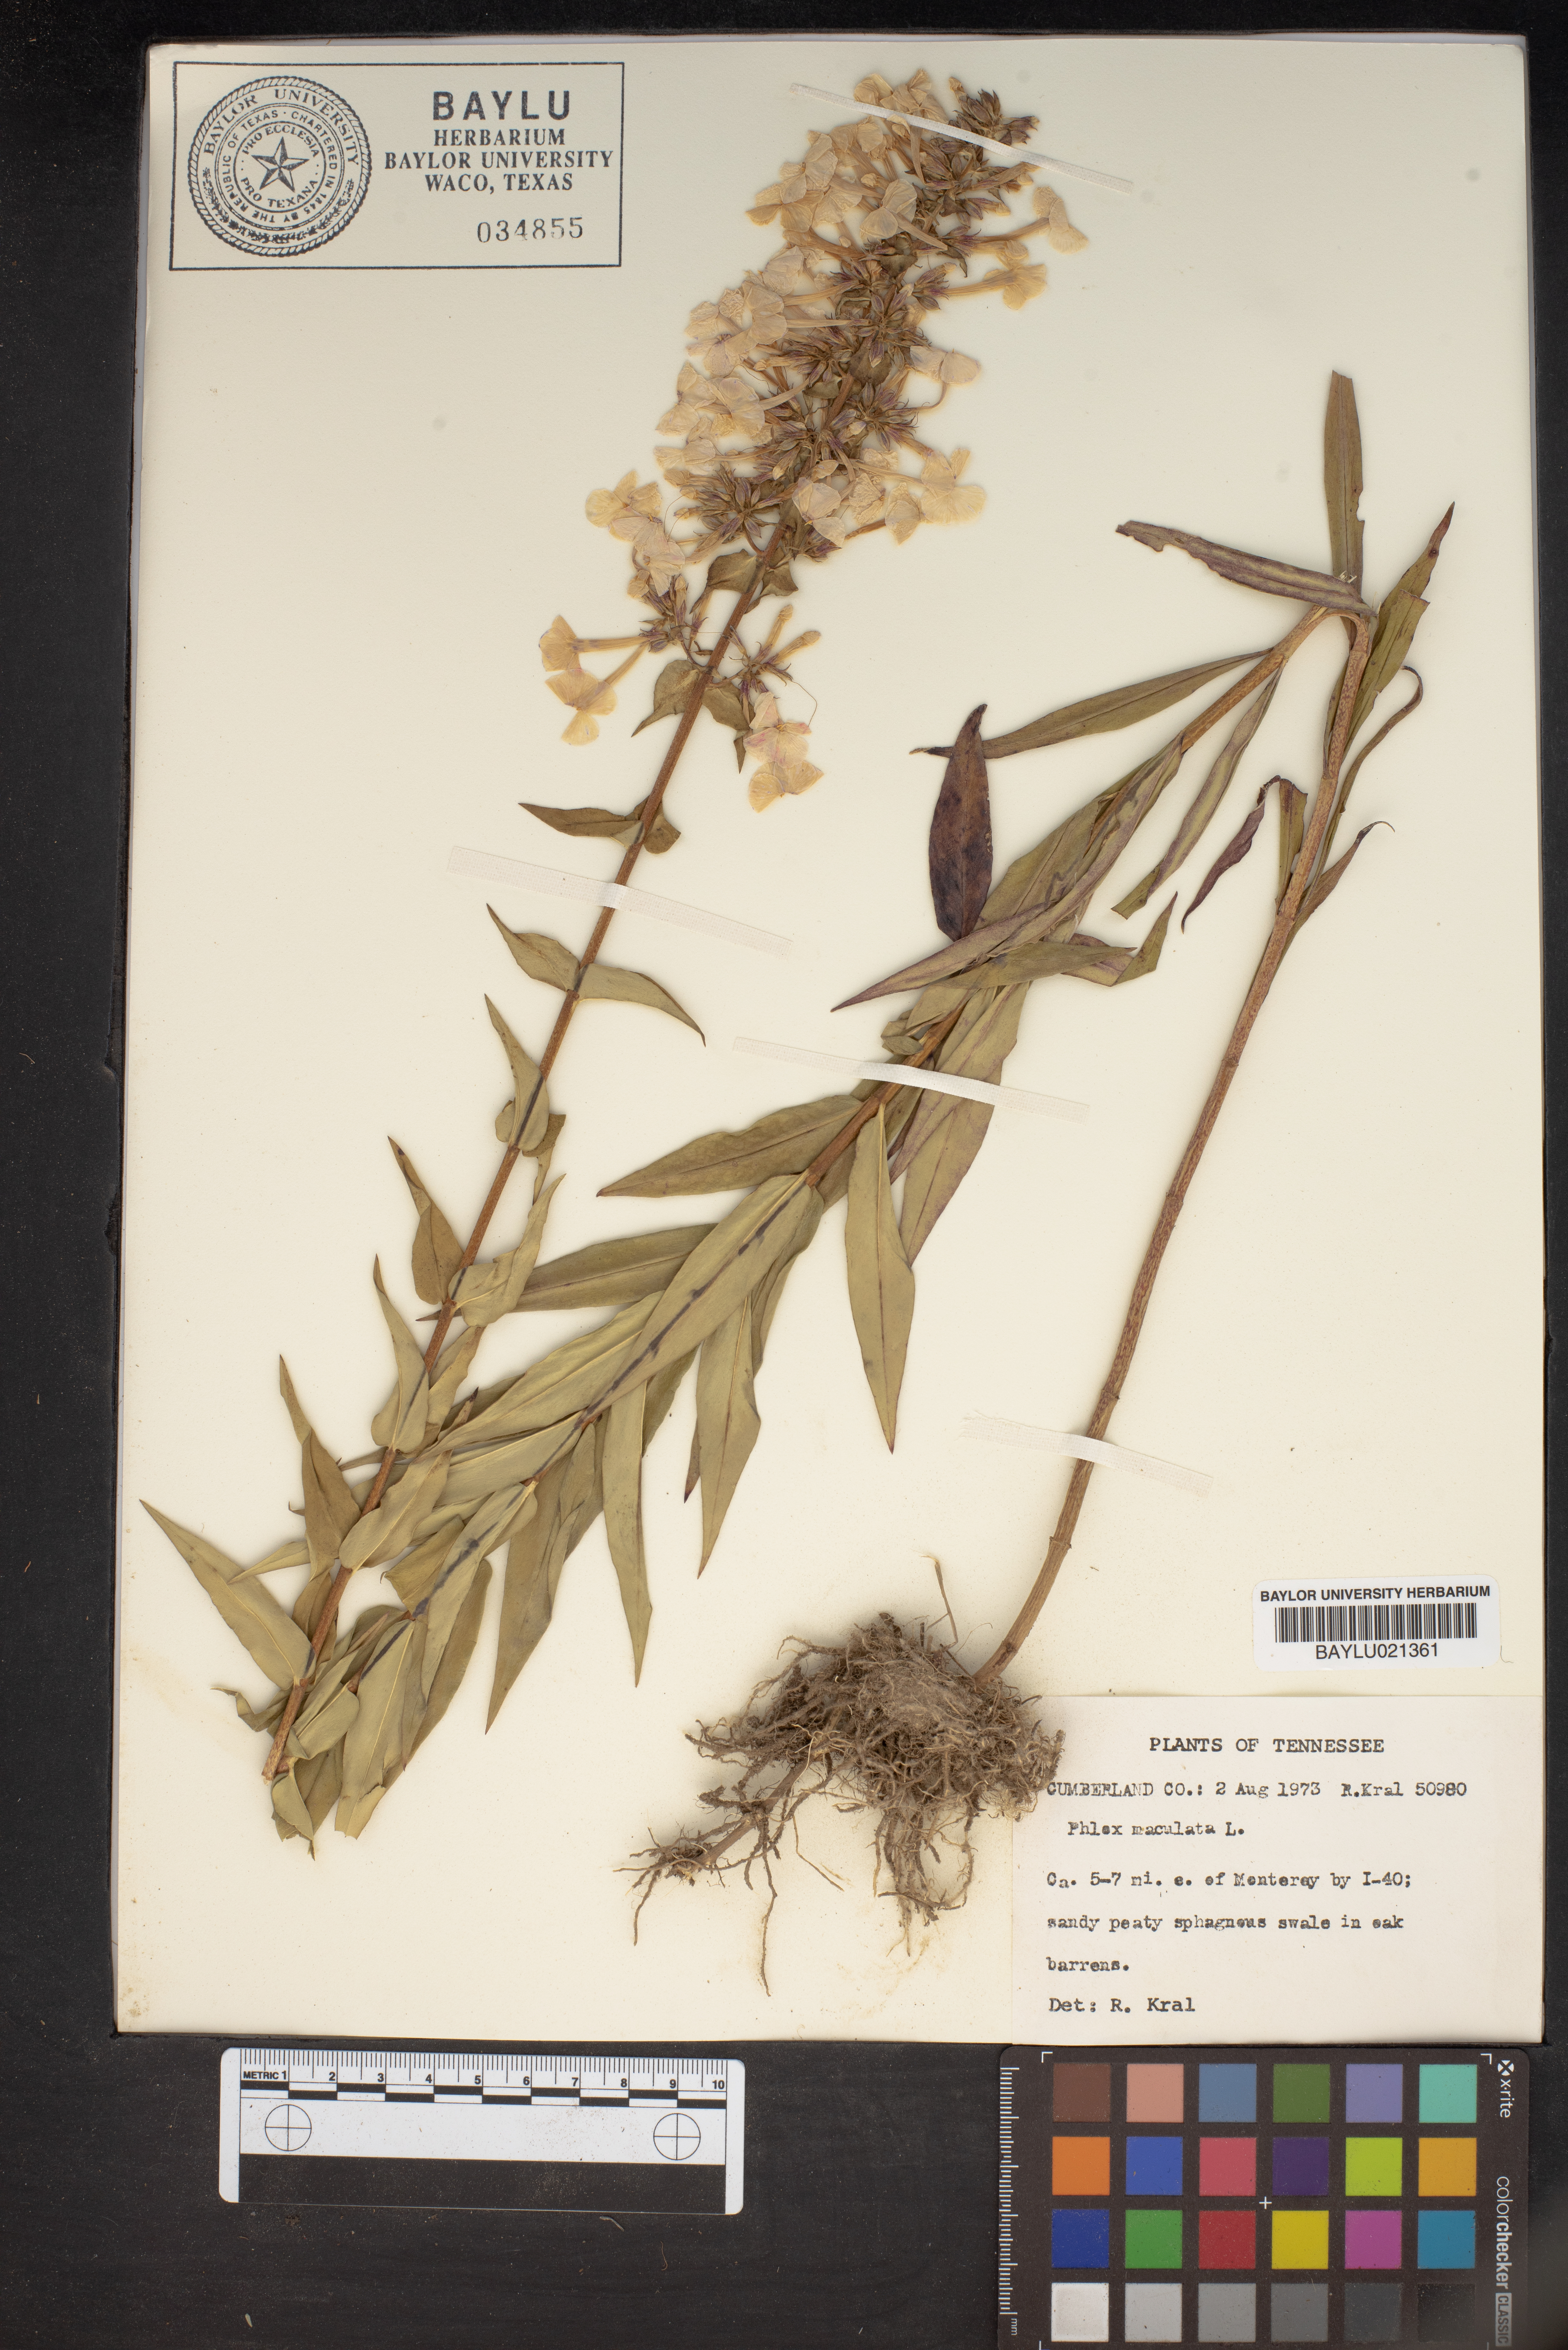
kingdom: Plantae
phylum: Tracheophyta
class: Magnoliopsida
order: Ericales
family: Polemoniaceae
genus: Phlox
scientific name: Phlox maculata
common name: Meadow phlox
